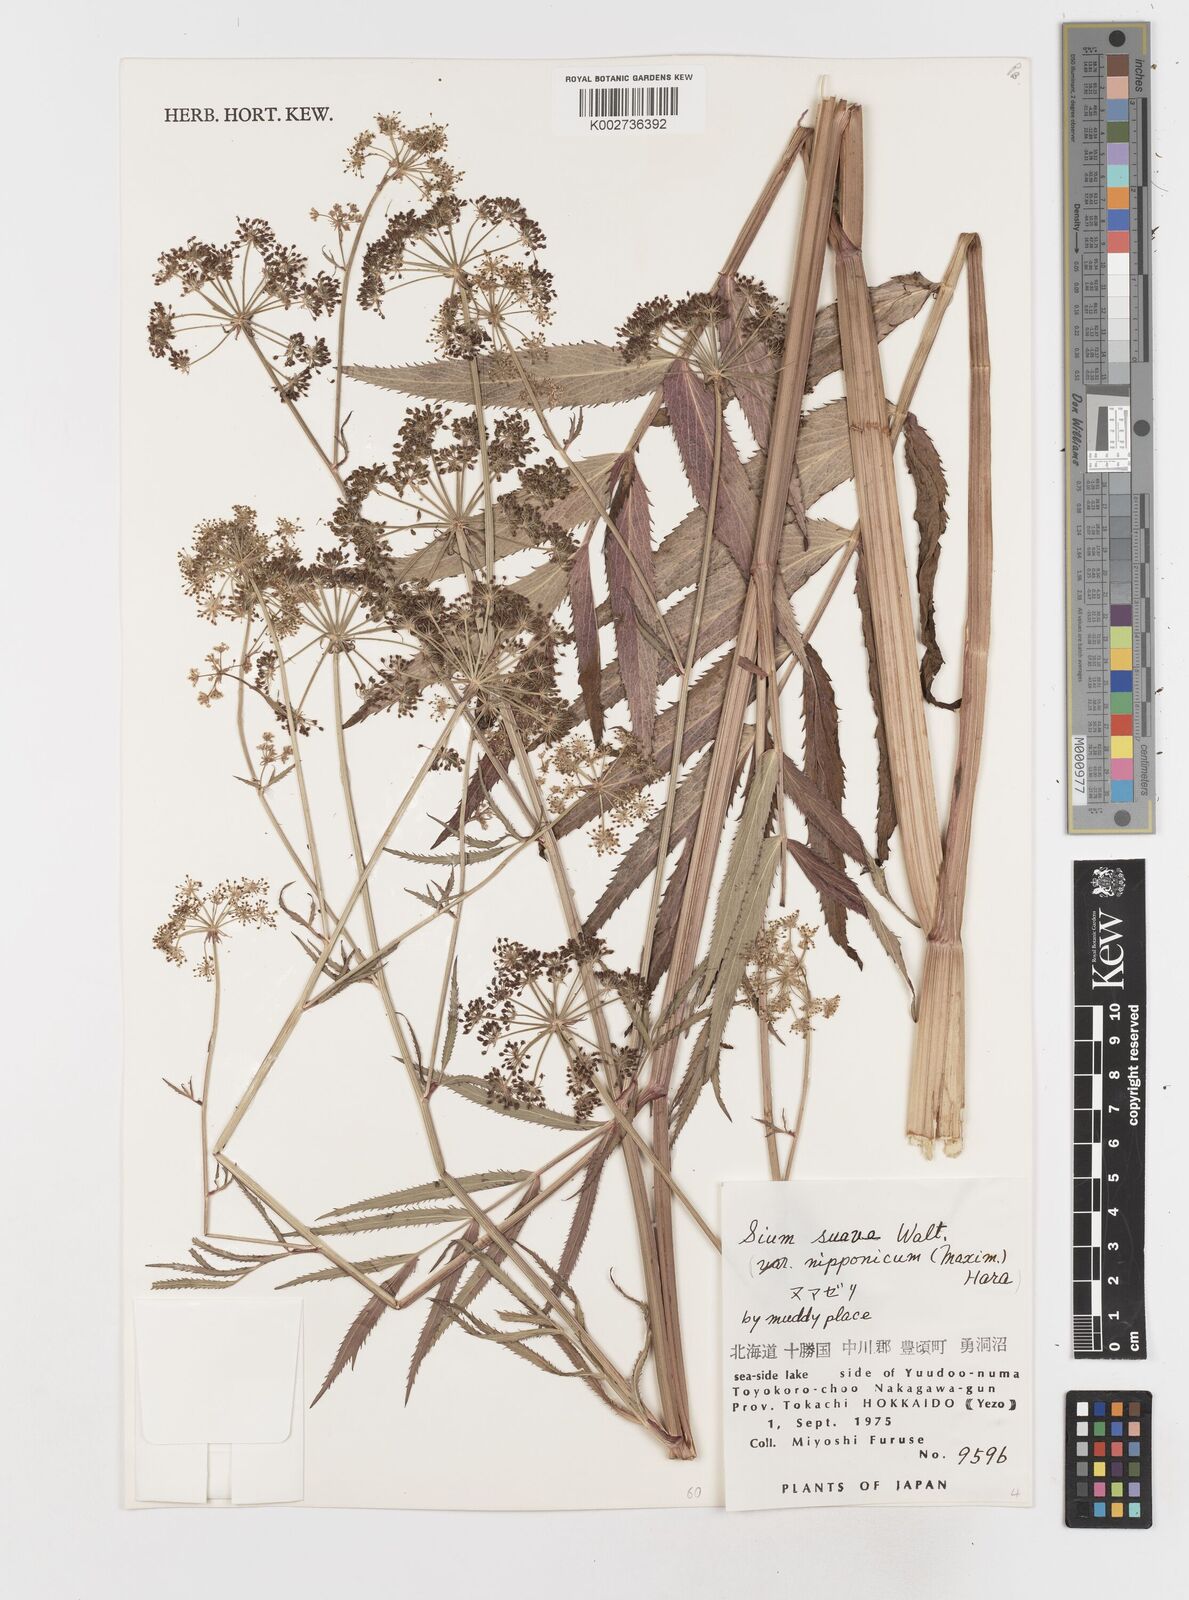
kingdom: Plantae
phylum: Tracheophyta
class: Magnoliopsida
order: Apiales
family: Apiaceae
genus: Sium
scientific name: Sium suave
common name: Hemlock water-parsnip
